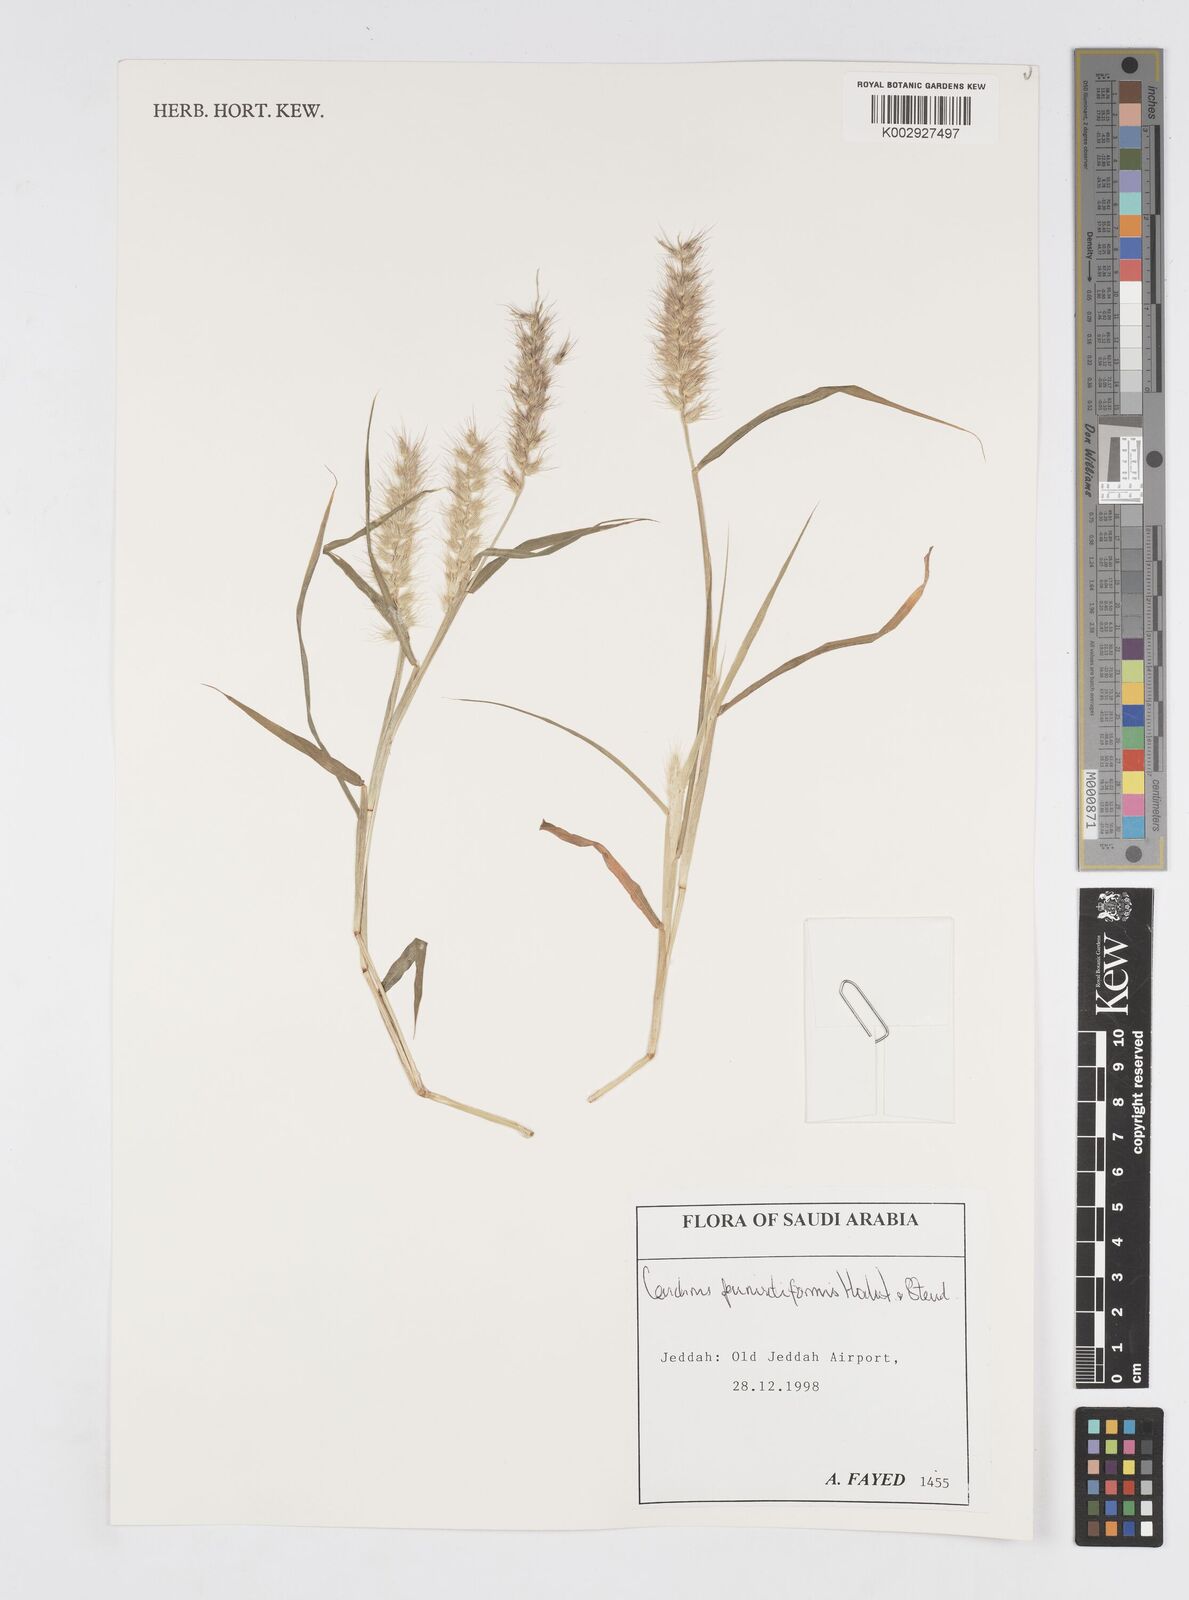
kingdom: Plantae
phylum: Tracheophyta
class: Liliopsida
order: Poales
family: Poaceae
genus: Cenchrus
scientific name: Cenchrus pennisetiformis
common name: Cloncurry
